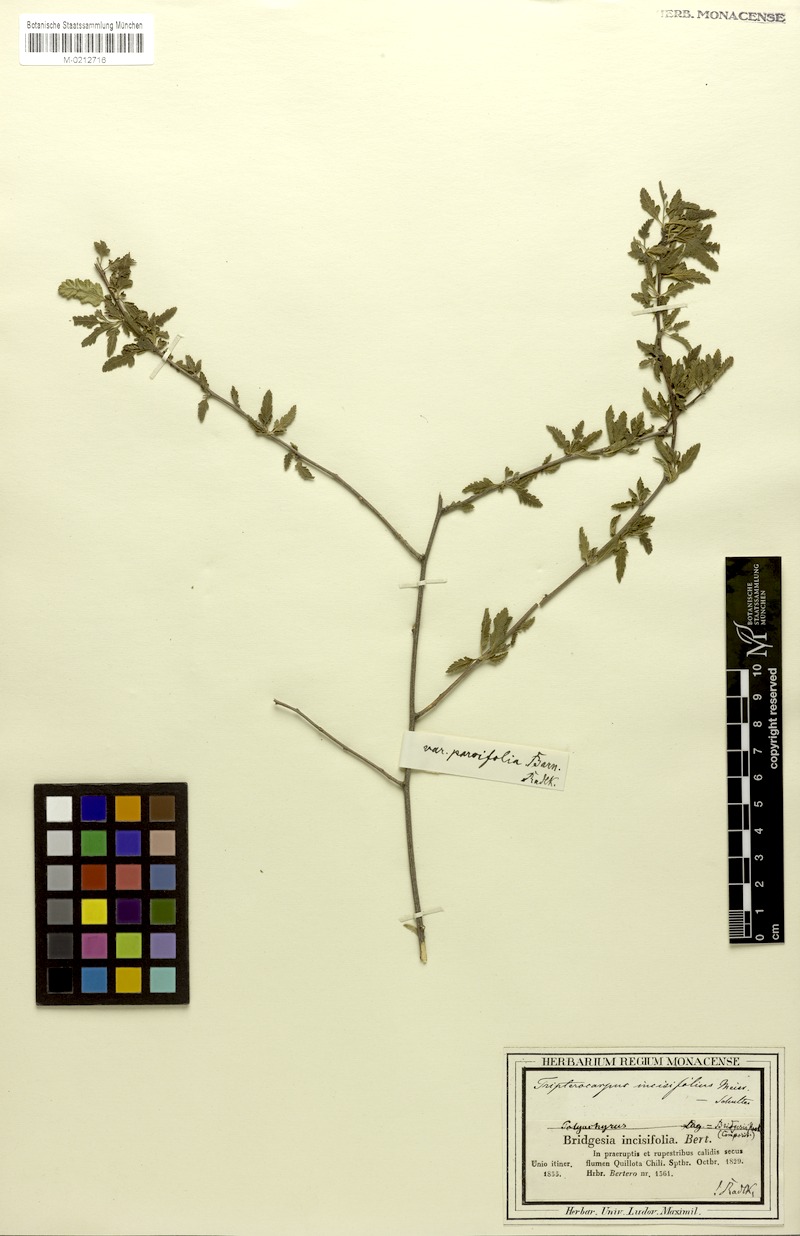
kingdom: Plantae
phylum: Tracheophyta
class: Magnoliopsida
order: Sapindales
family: Sapindaceae
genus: Bridgesia
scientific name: Bridgesia incisifolia
